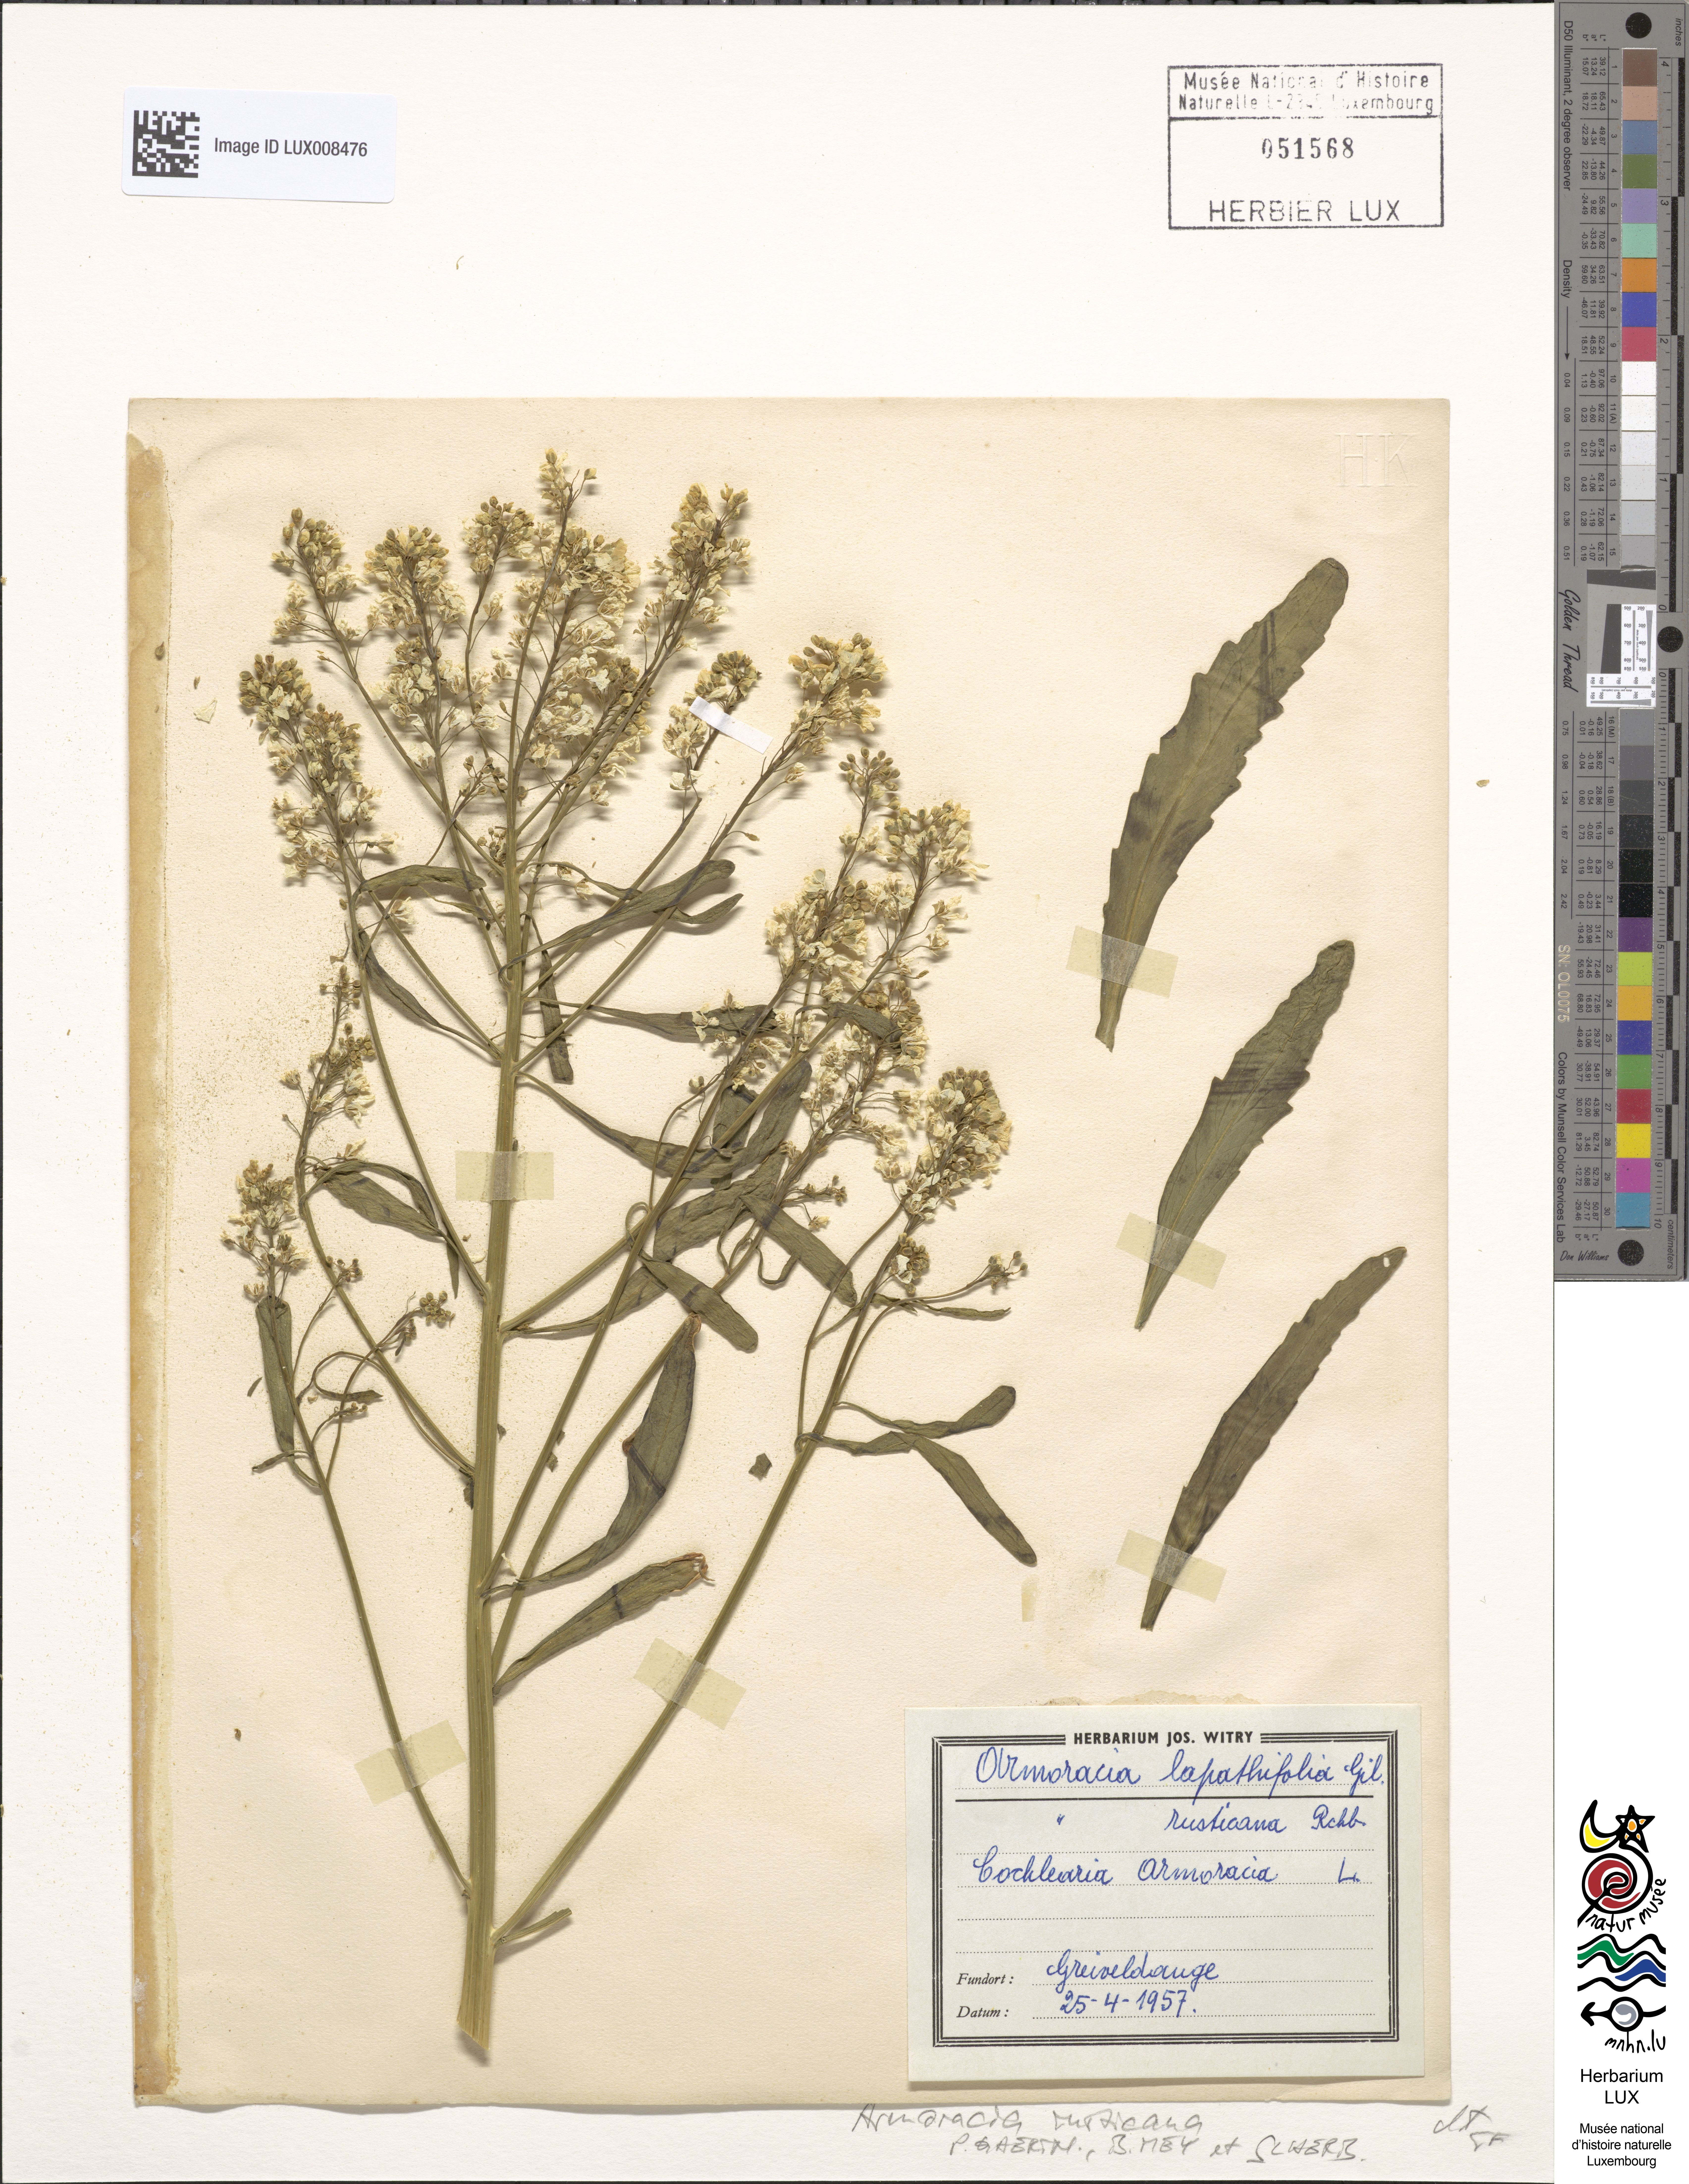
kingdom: Plantae
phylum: Tracheophyta
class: Magnoliopsida
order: Brassicales
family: Brassicaceae
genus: Armoracia
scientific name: Armoracia rusticana
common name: Horseradish
